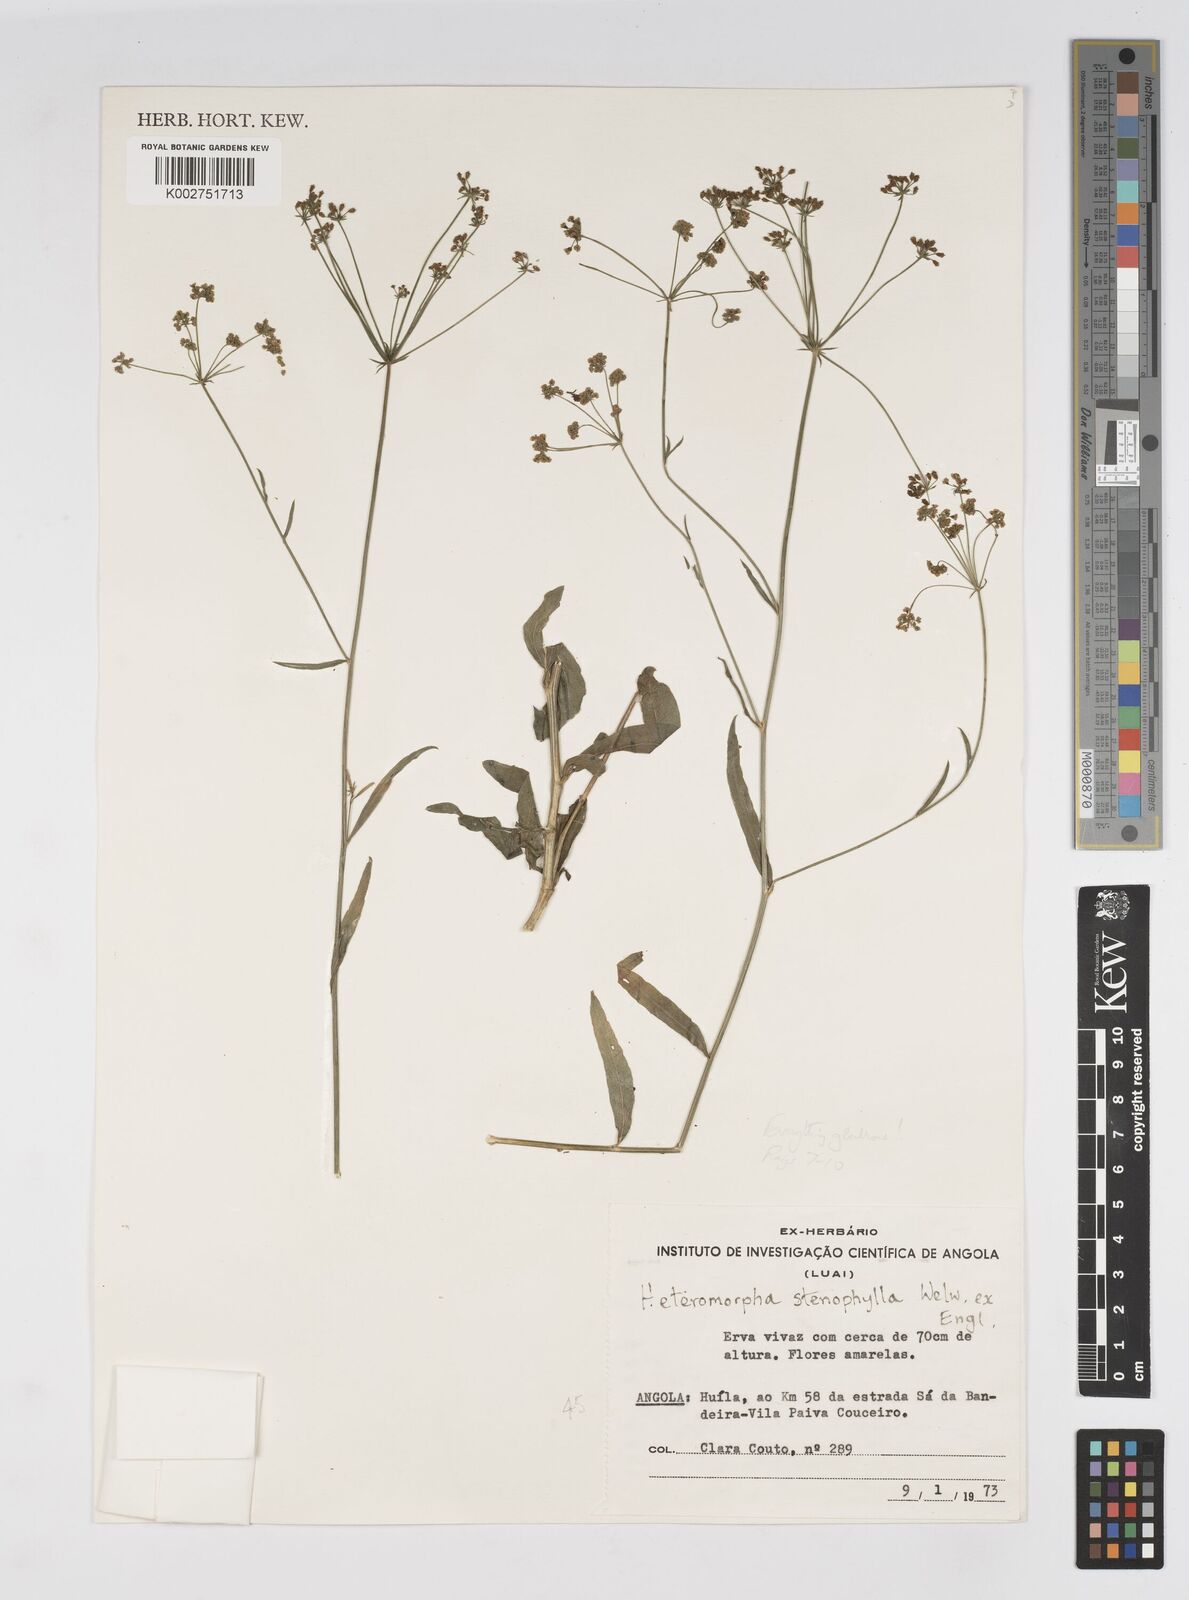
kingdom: Plantae
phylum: Tracheophyta
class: Magnoliopsida
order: Apiales
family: Apiaceae
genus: Heteromorpha
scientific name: Heteromorpha gossweileri
